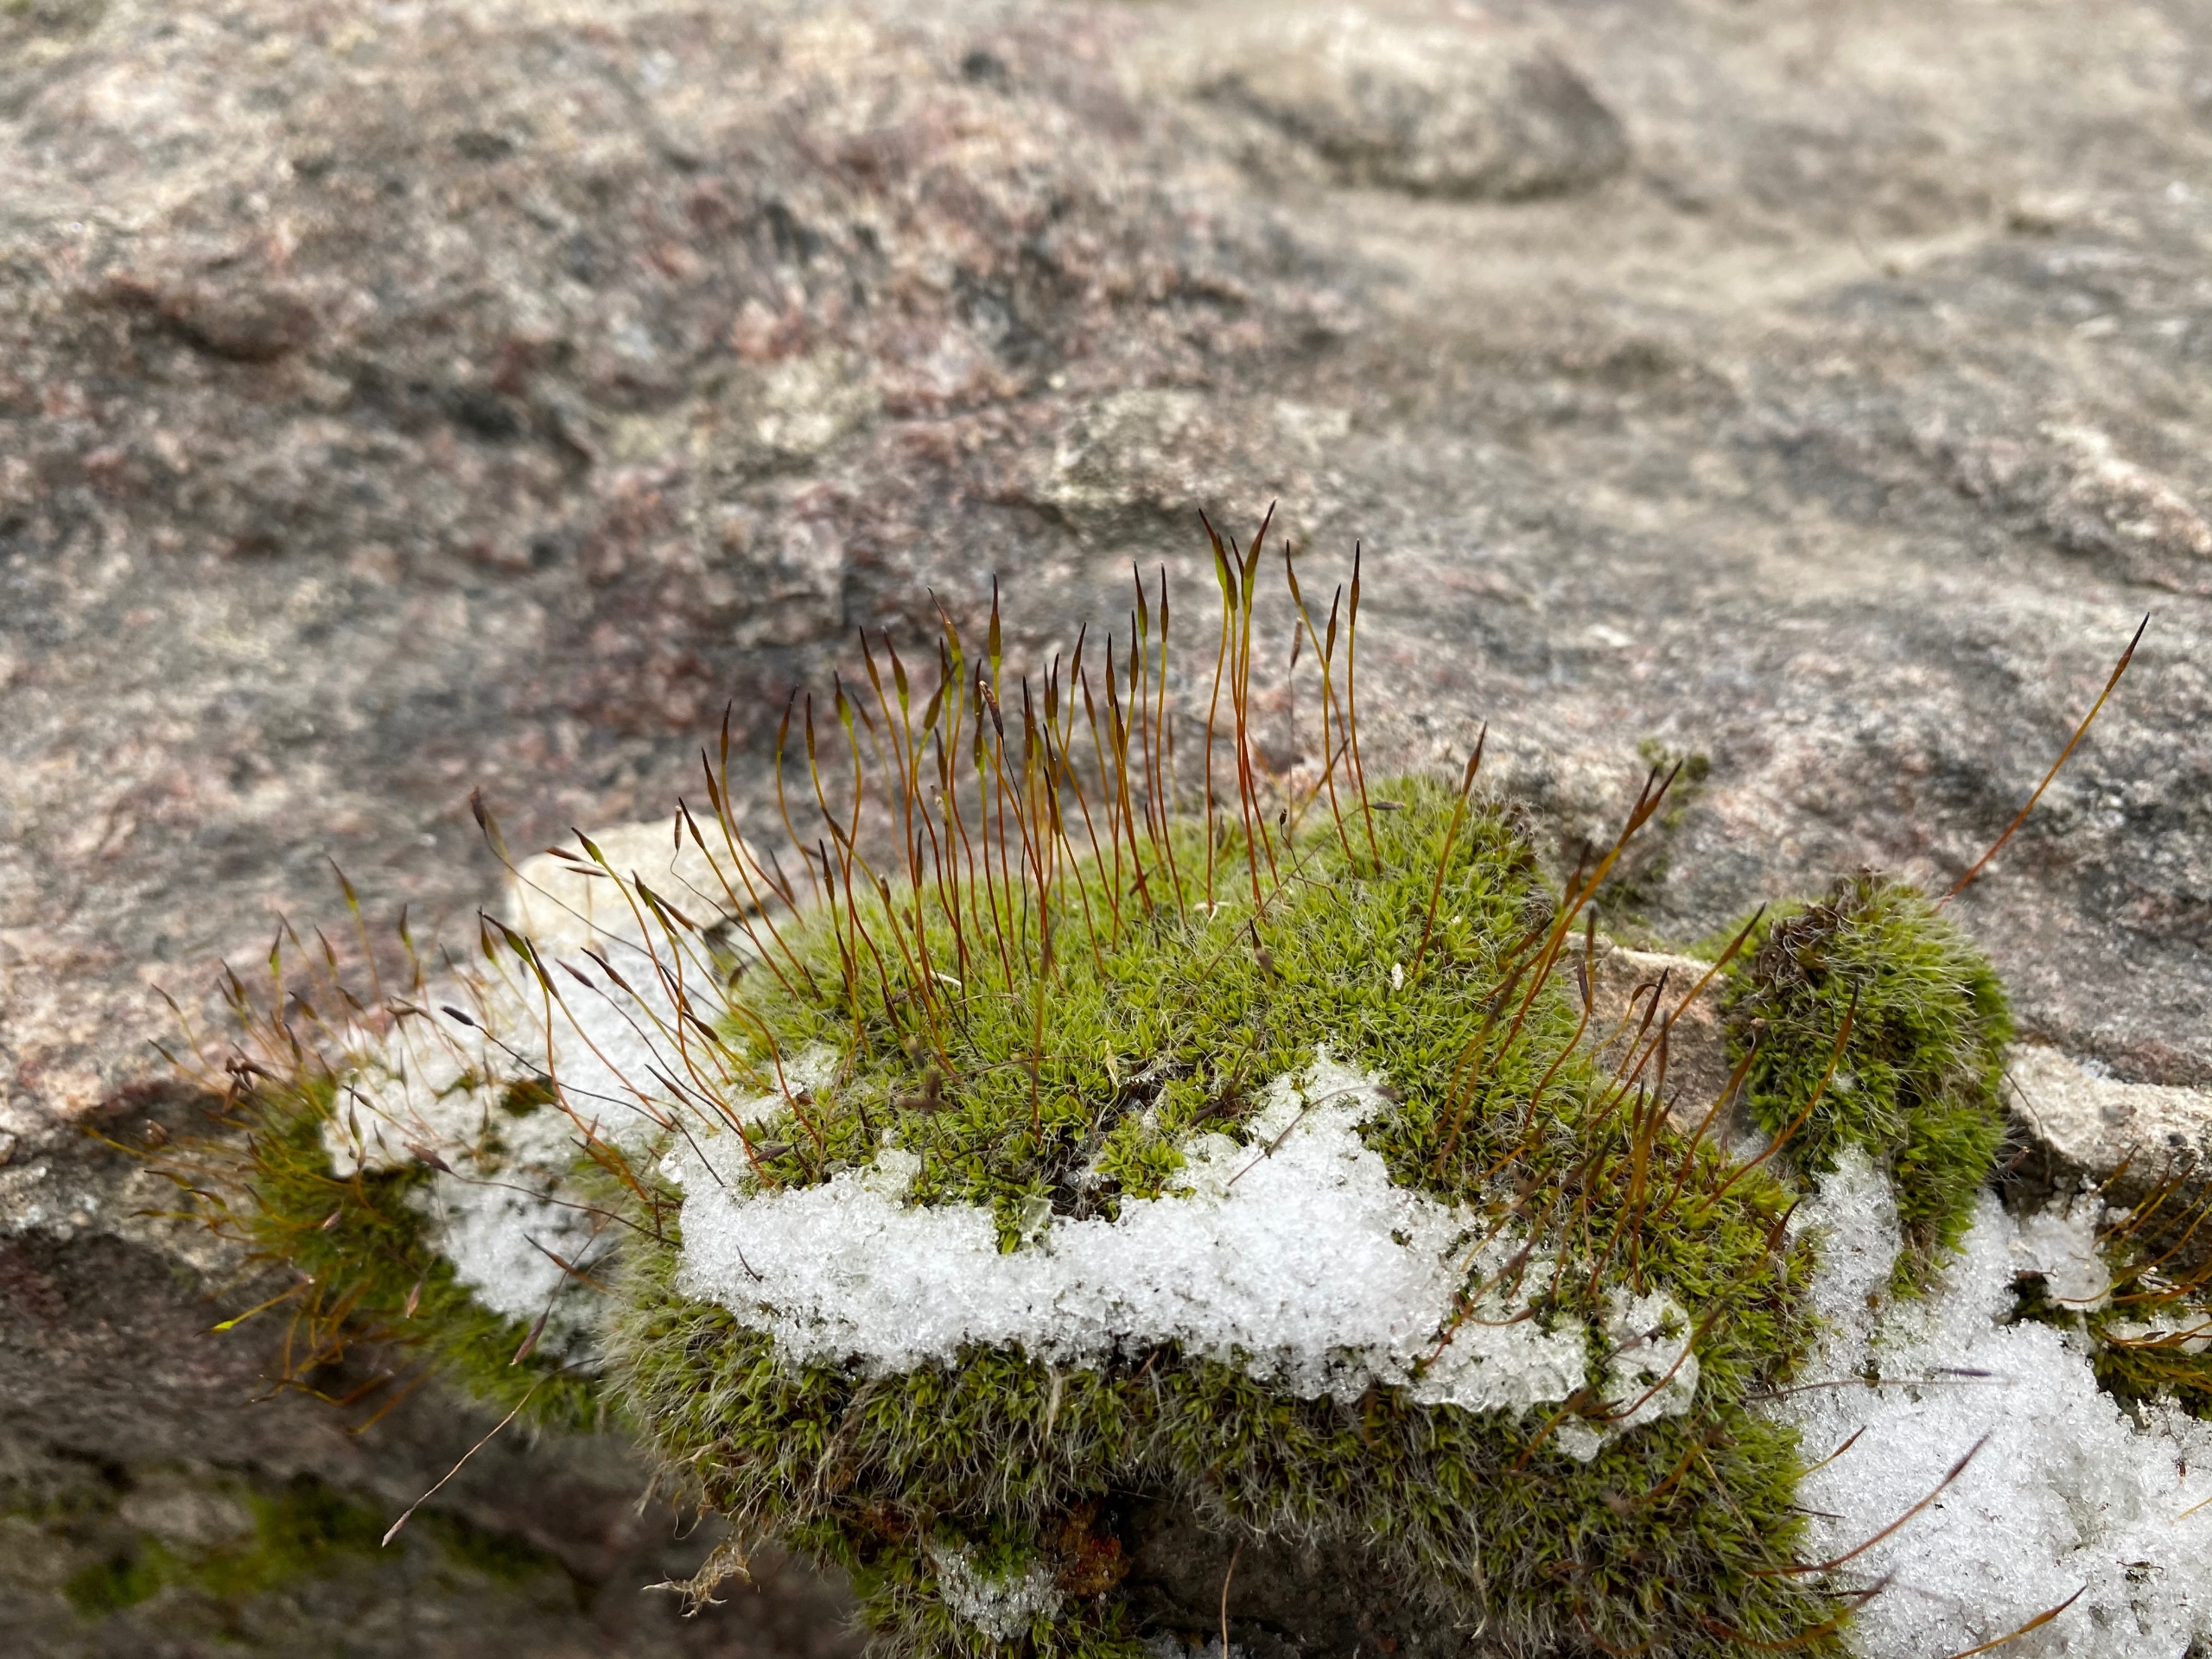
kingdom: Plantae
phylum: Bryophyta
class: Bryopsida
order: Pottiales
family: Pottiaceae
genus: Tortula
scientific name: Tortula muralis
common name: Mur-snotand
